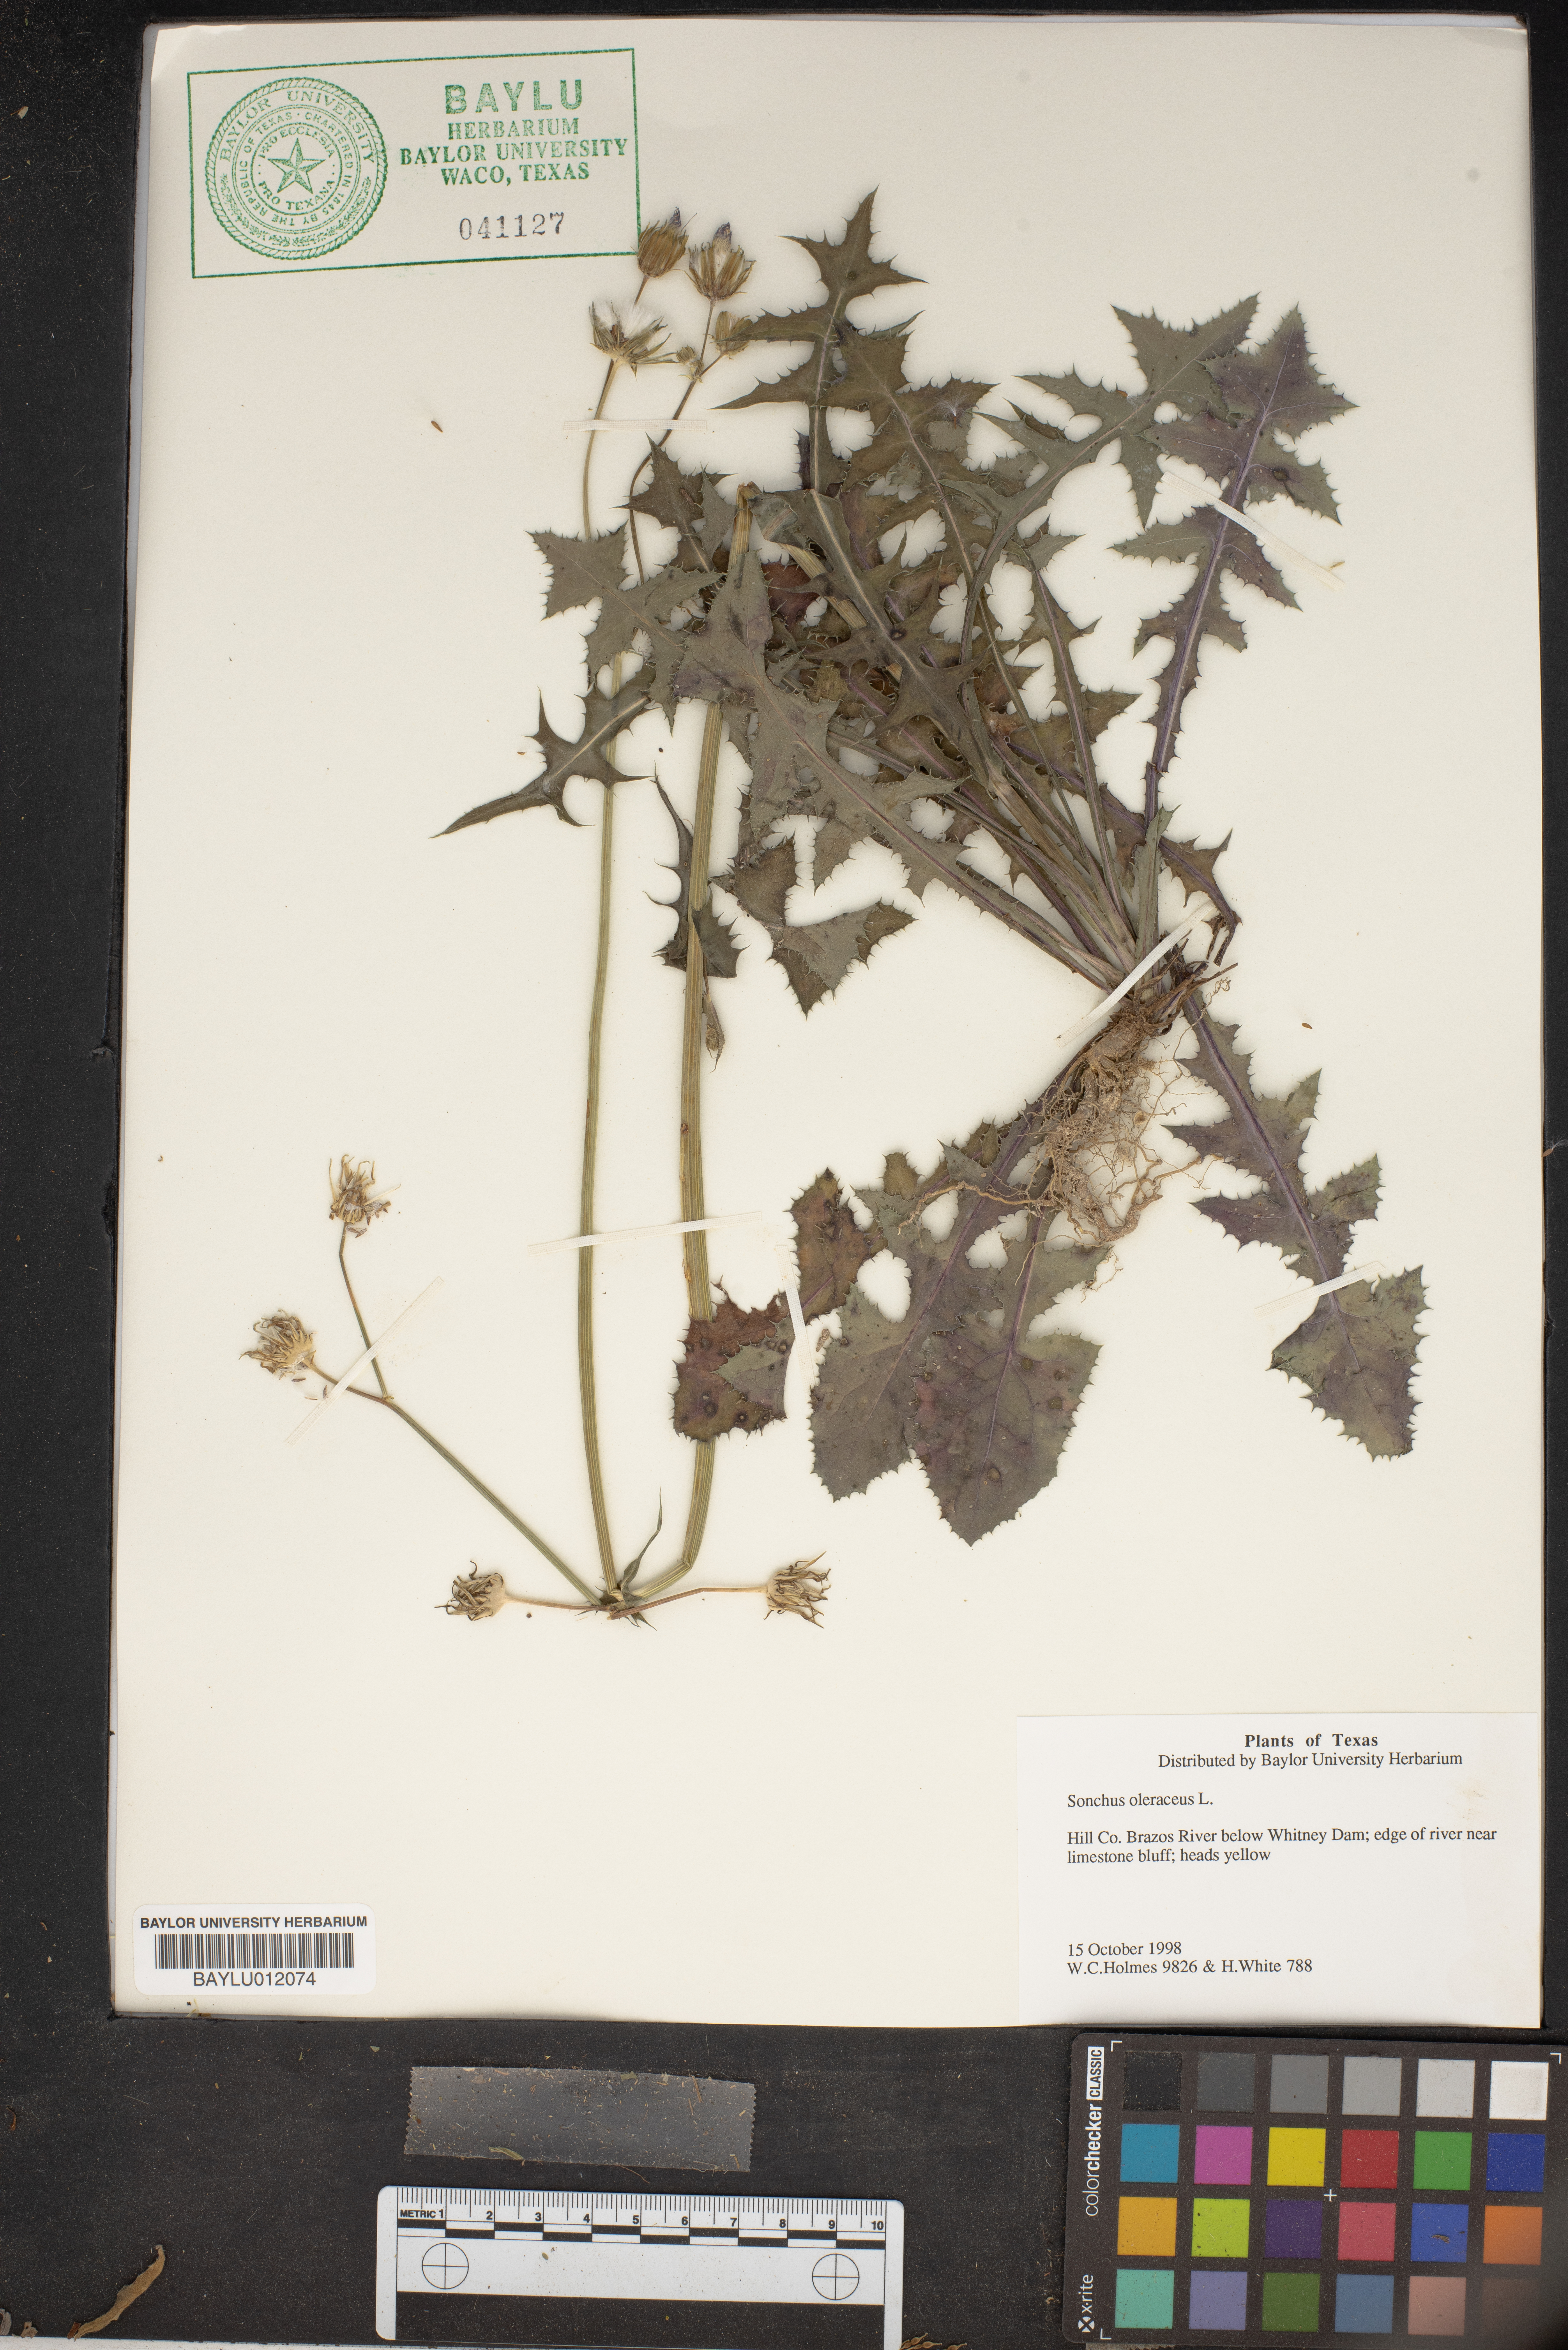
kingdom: Plantae
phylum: Tracheophyta
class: Magnoliopsida
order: Asterales
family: Asteraceae
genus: Sonchus
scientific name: Sonchus oleraceus
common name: Common sowthistle
